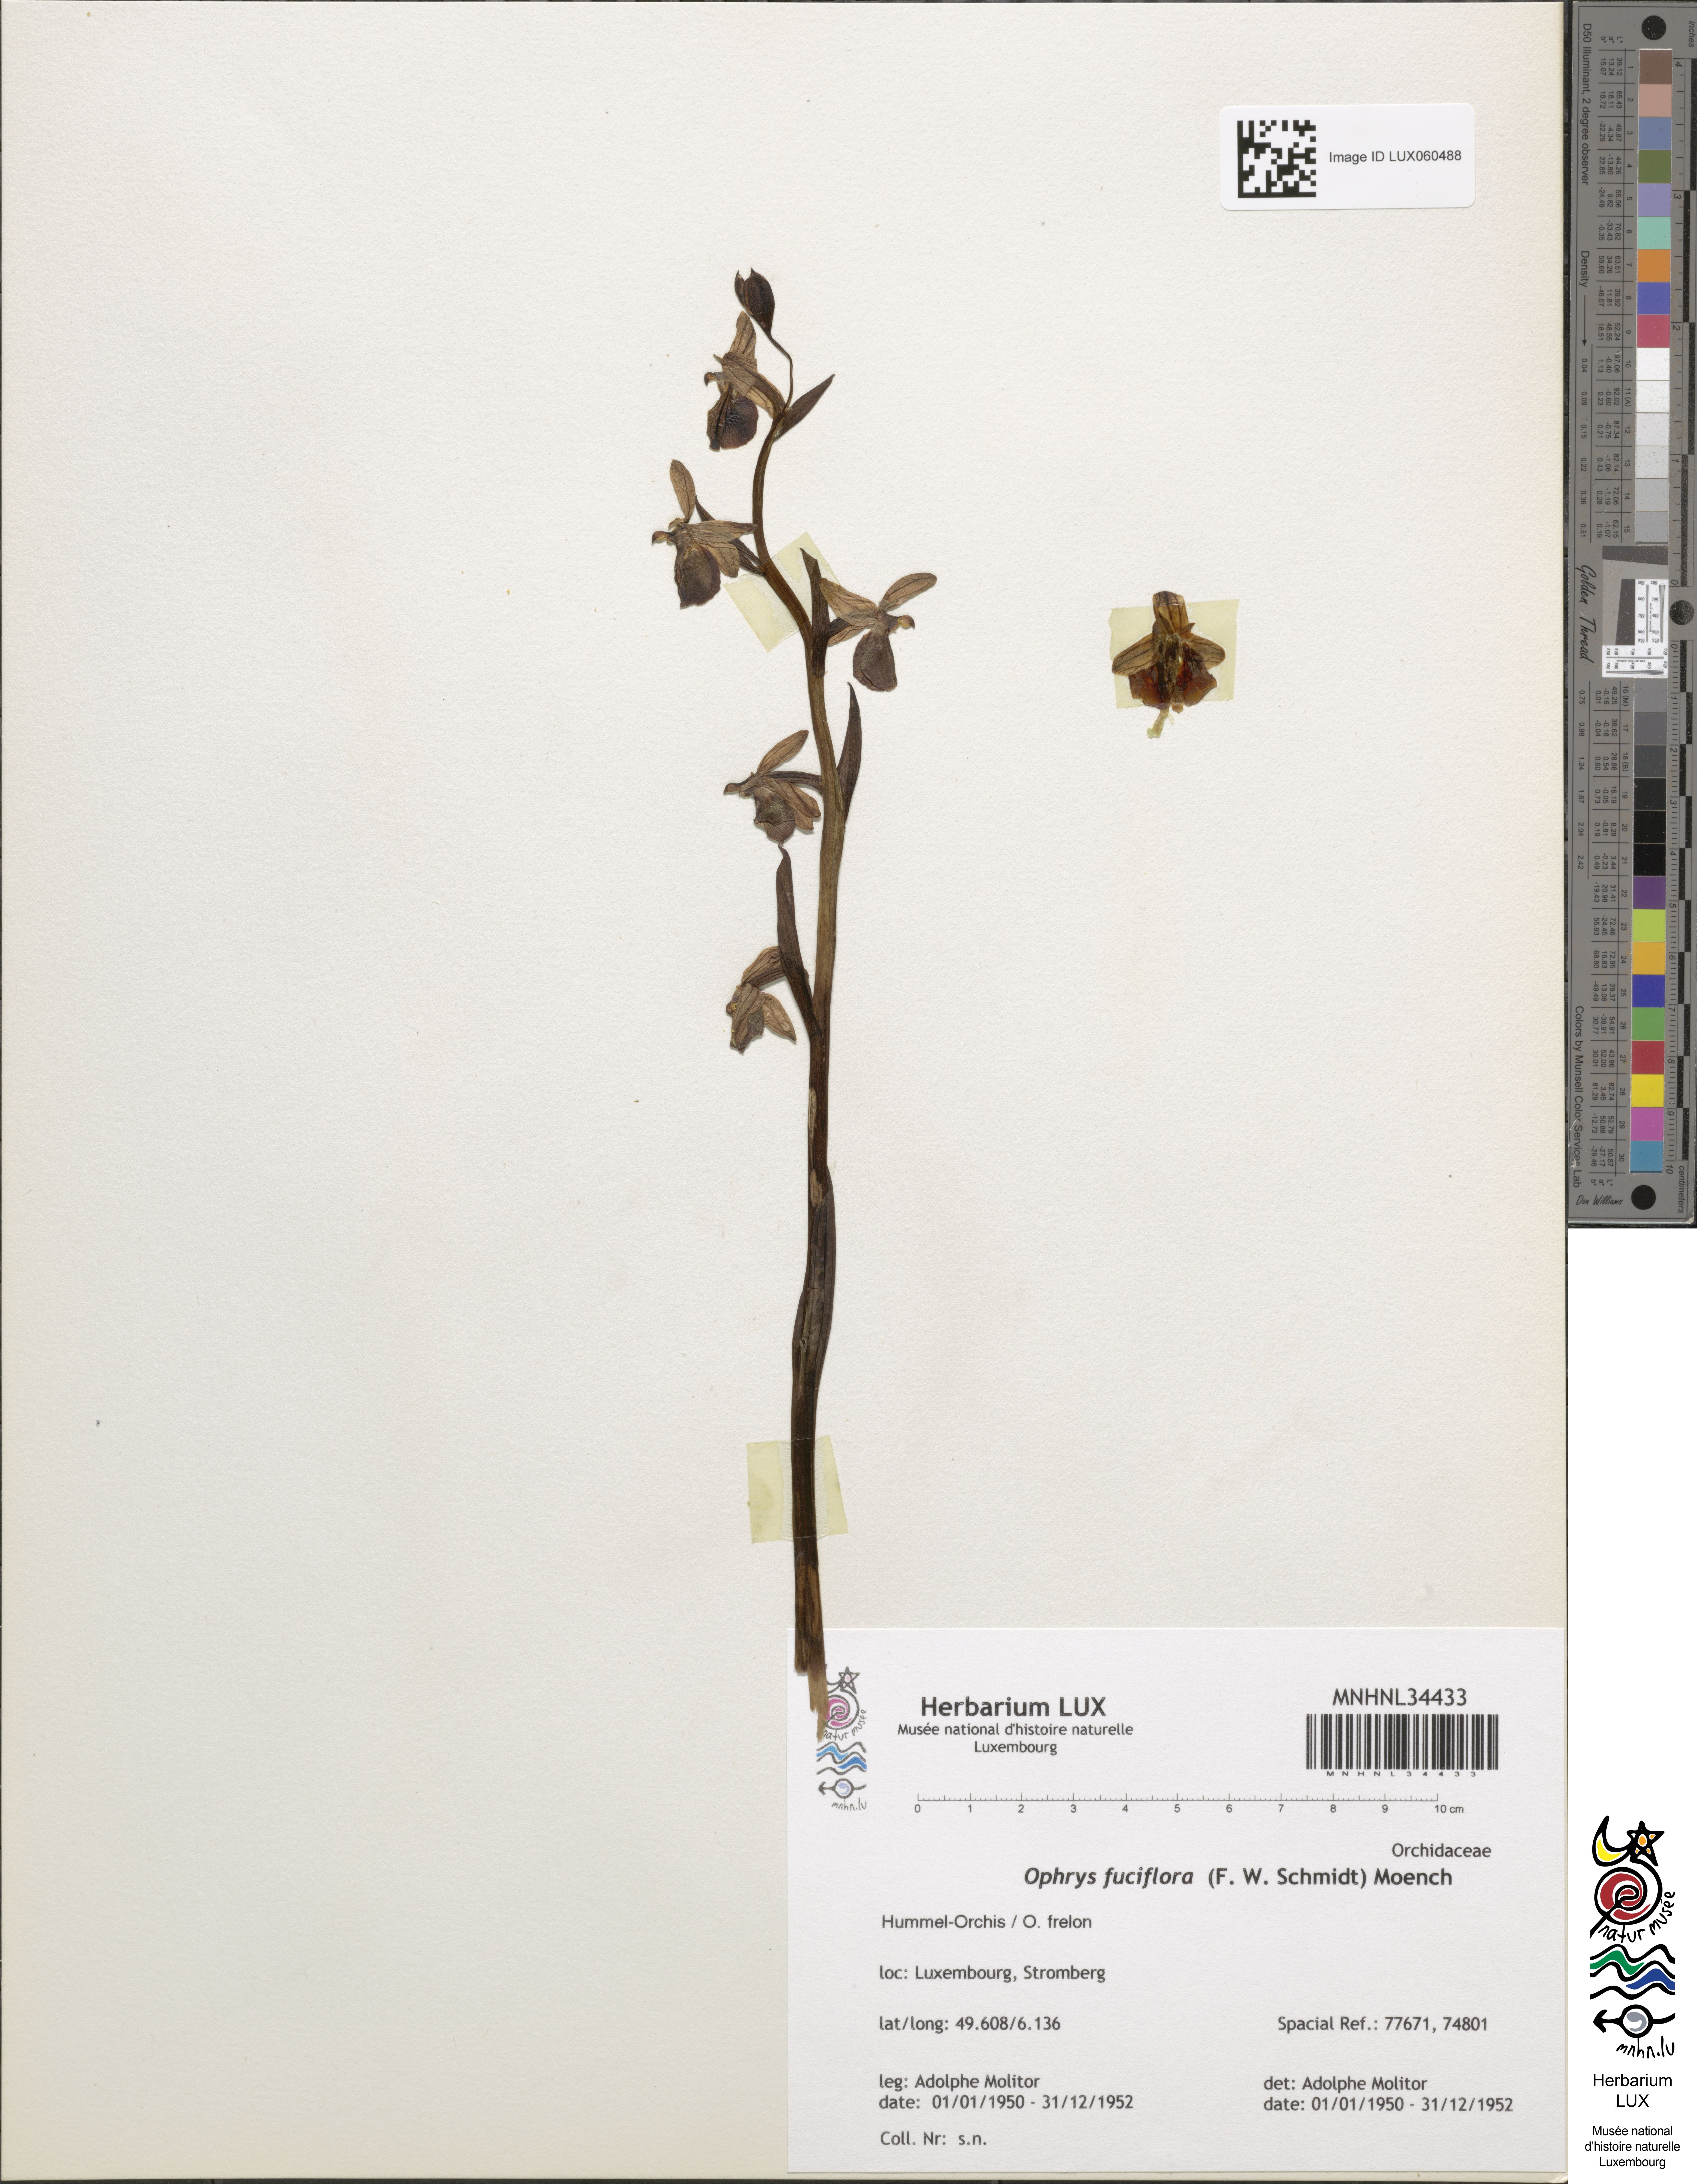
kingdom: Plantae
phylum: Tracheophyta
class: Liliopsida
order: Asparagales
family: Orchidaceae
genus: Ophrys
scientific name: Ophrys holosericea
